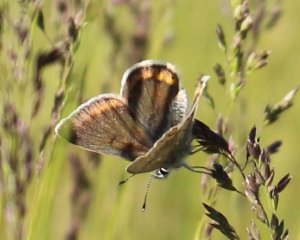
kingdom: Animalia
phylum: Arthropoda
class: Insecta
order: Lepidoptera
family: Lycaenidae
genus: Plebejus
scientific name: Plebejus saepiolus
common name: Greenish Blue
